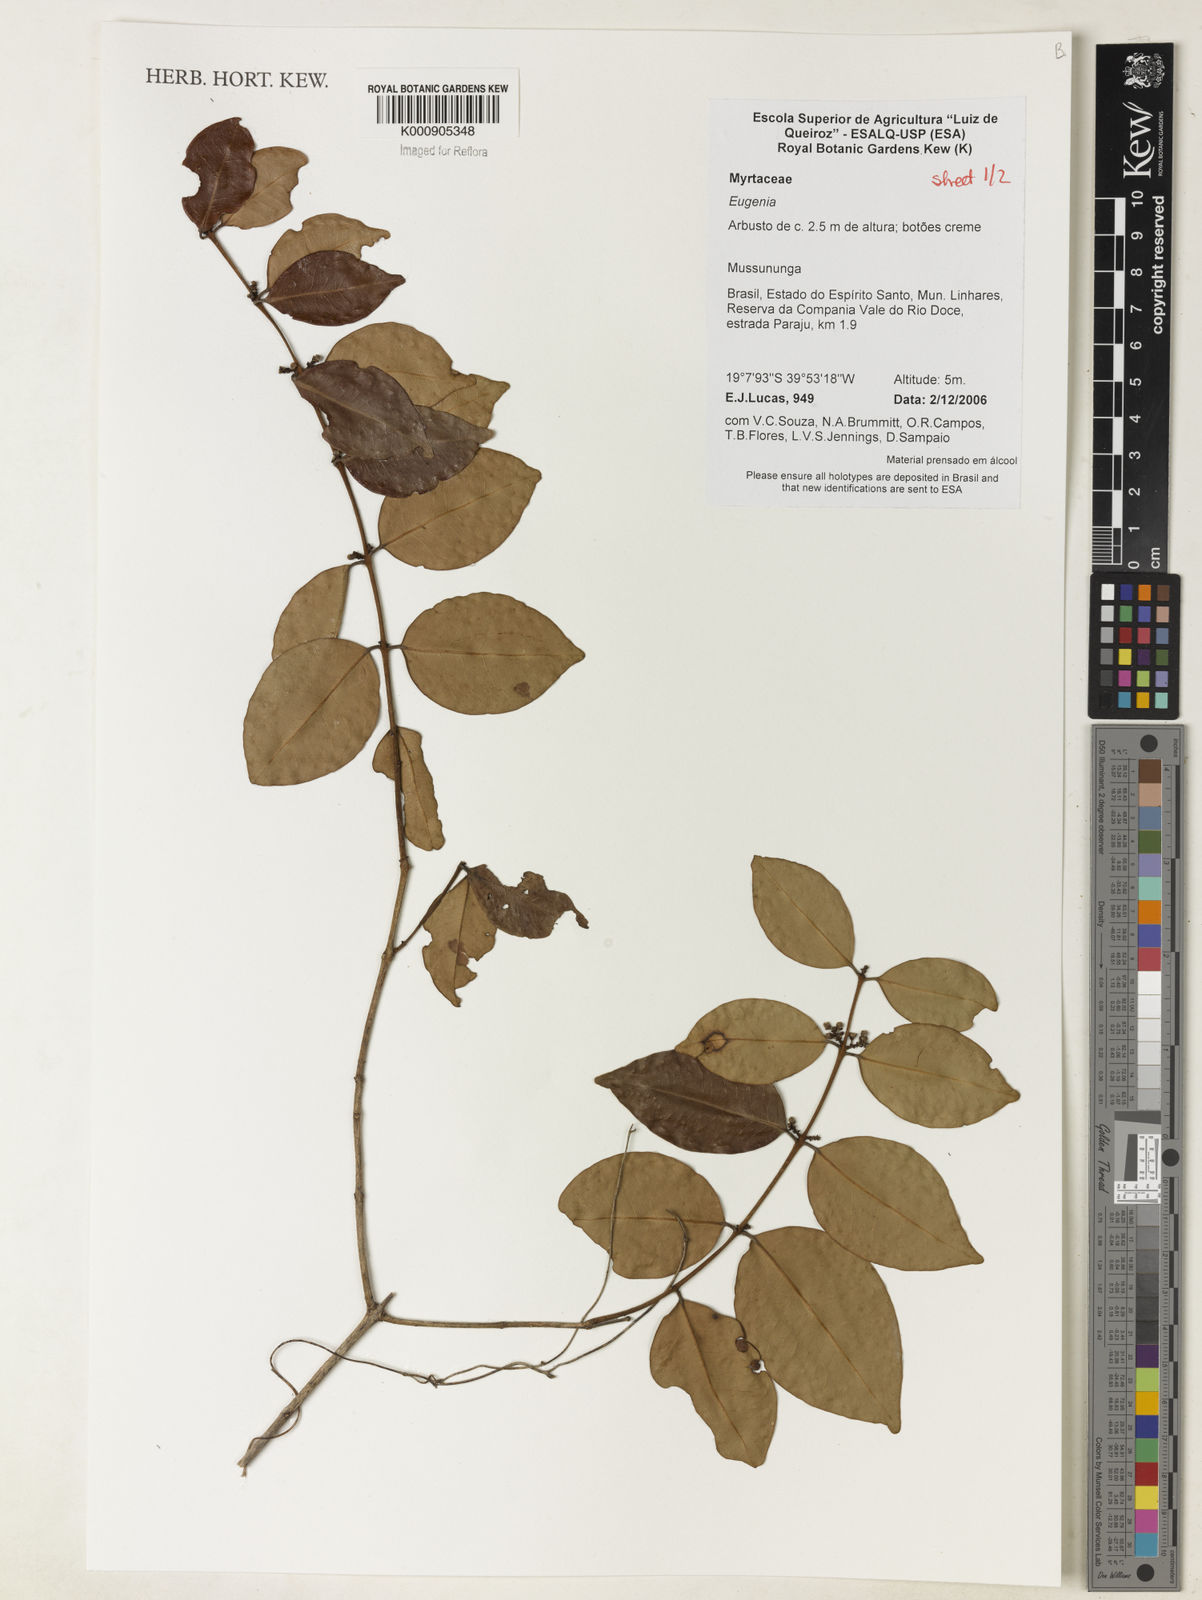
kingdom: Plantae
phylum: Tracheophyta
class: Magnoliopsida
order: Myrtales
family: Myrtaceae
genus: Eugenia
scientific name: Eugenia brejoensis
